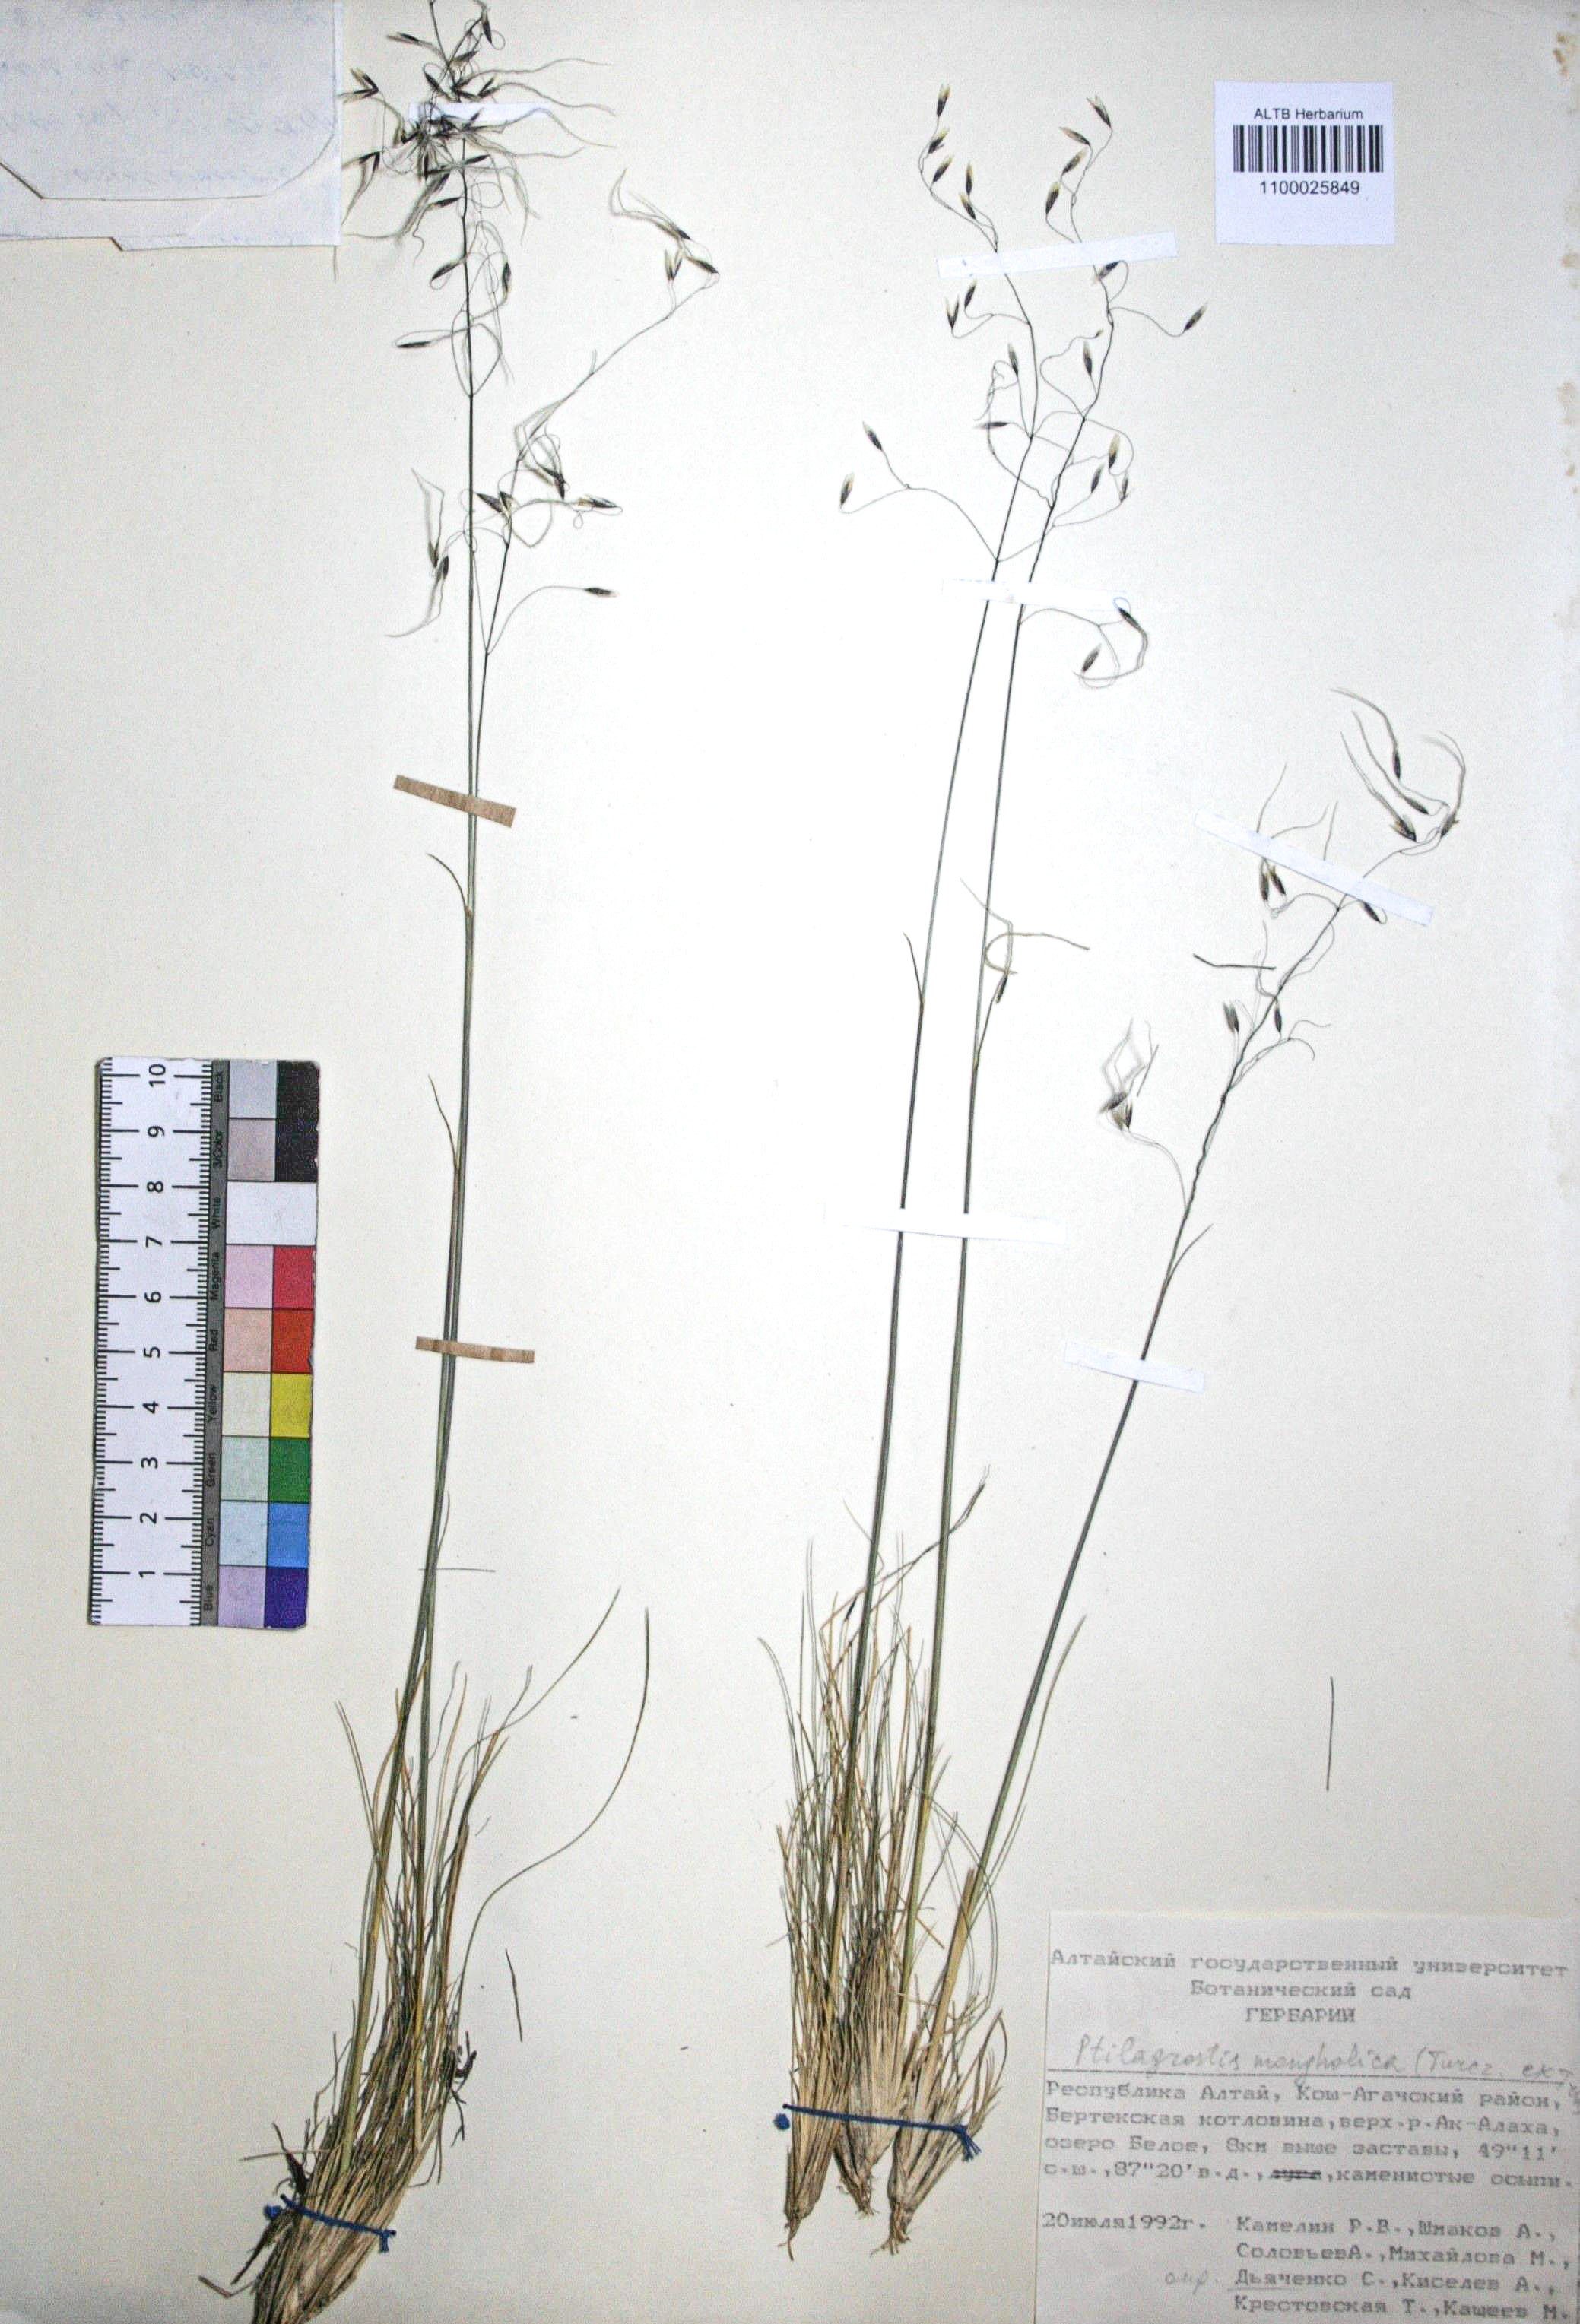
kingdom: Plantae
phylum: Tracheophyta
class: Liliopsida
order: Poales
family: Poaceae
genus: Ptilagrostis
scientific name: Ptilagrostis mongholica
